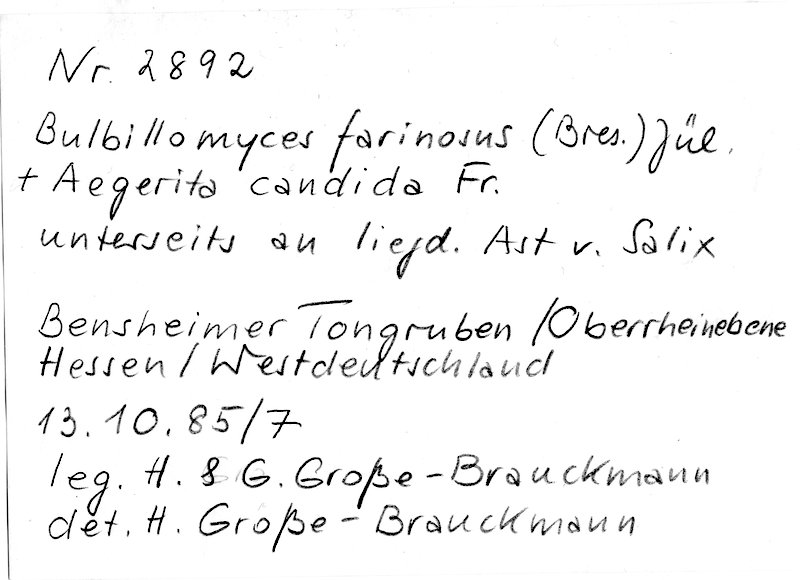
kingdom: Plantae
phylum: Tracheophyta
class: Magnoliopsida
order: Malpighiales
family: Salicaceae
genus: Salix
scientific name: Salix
